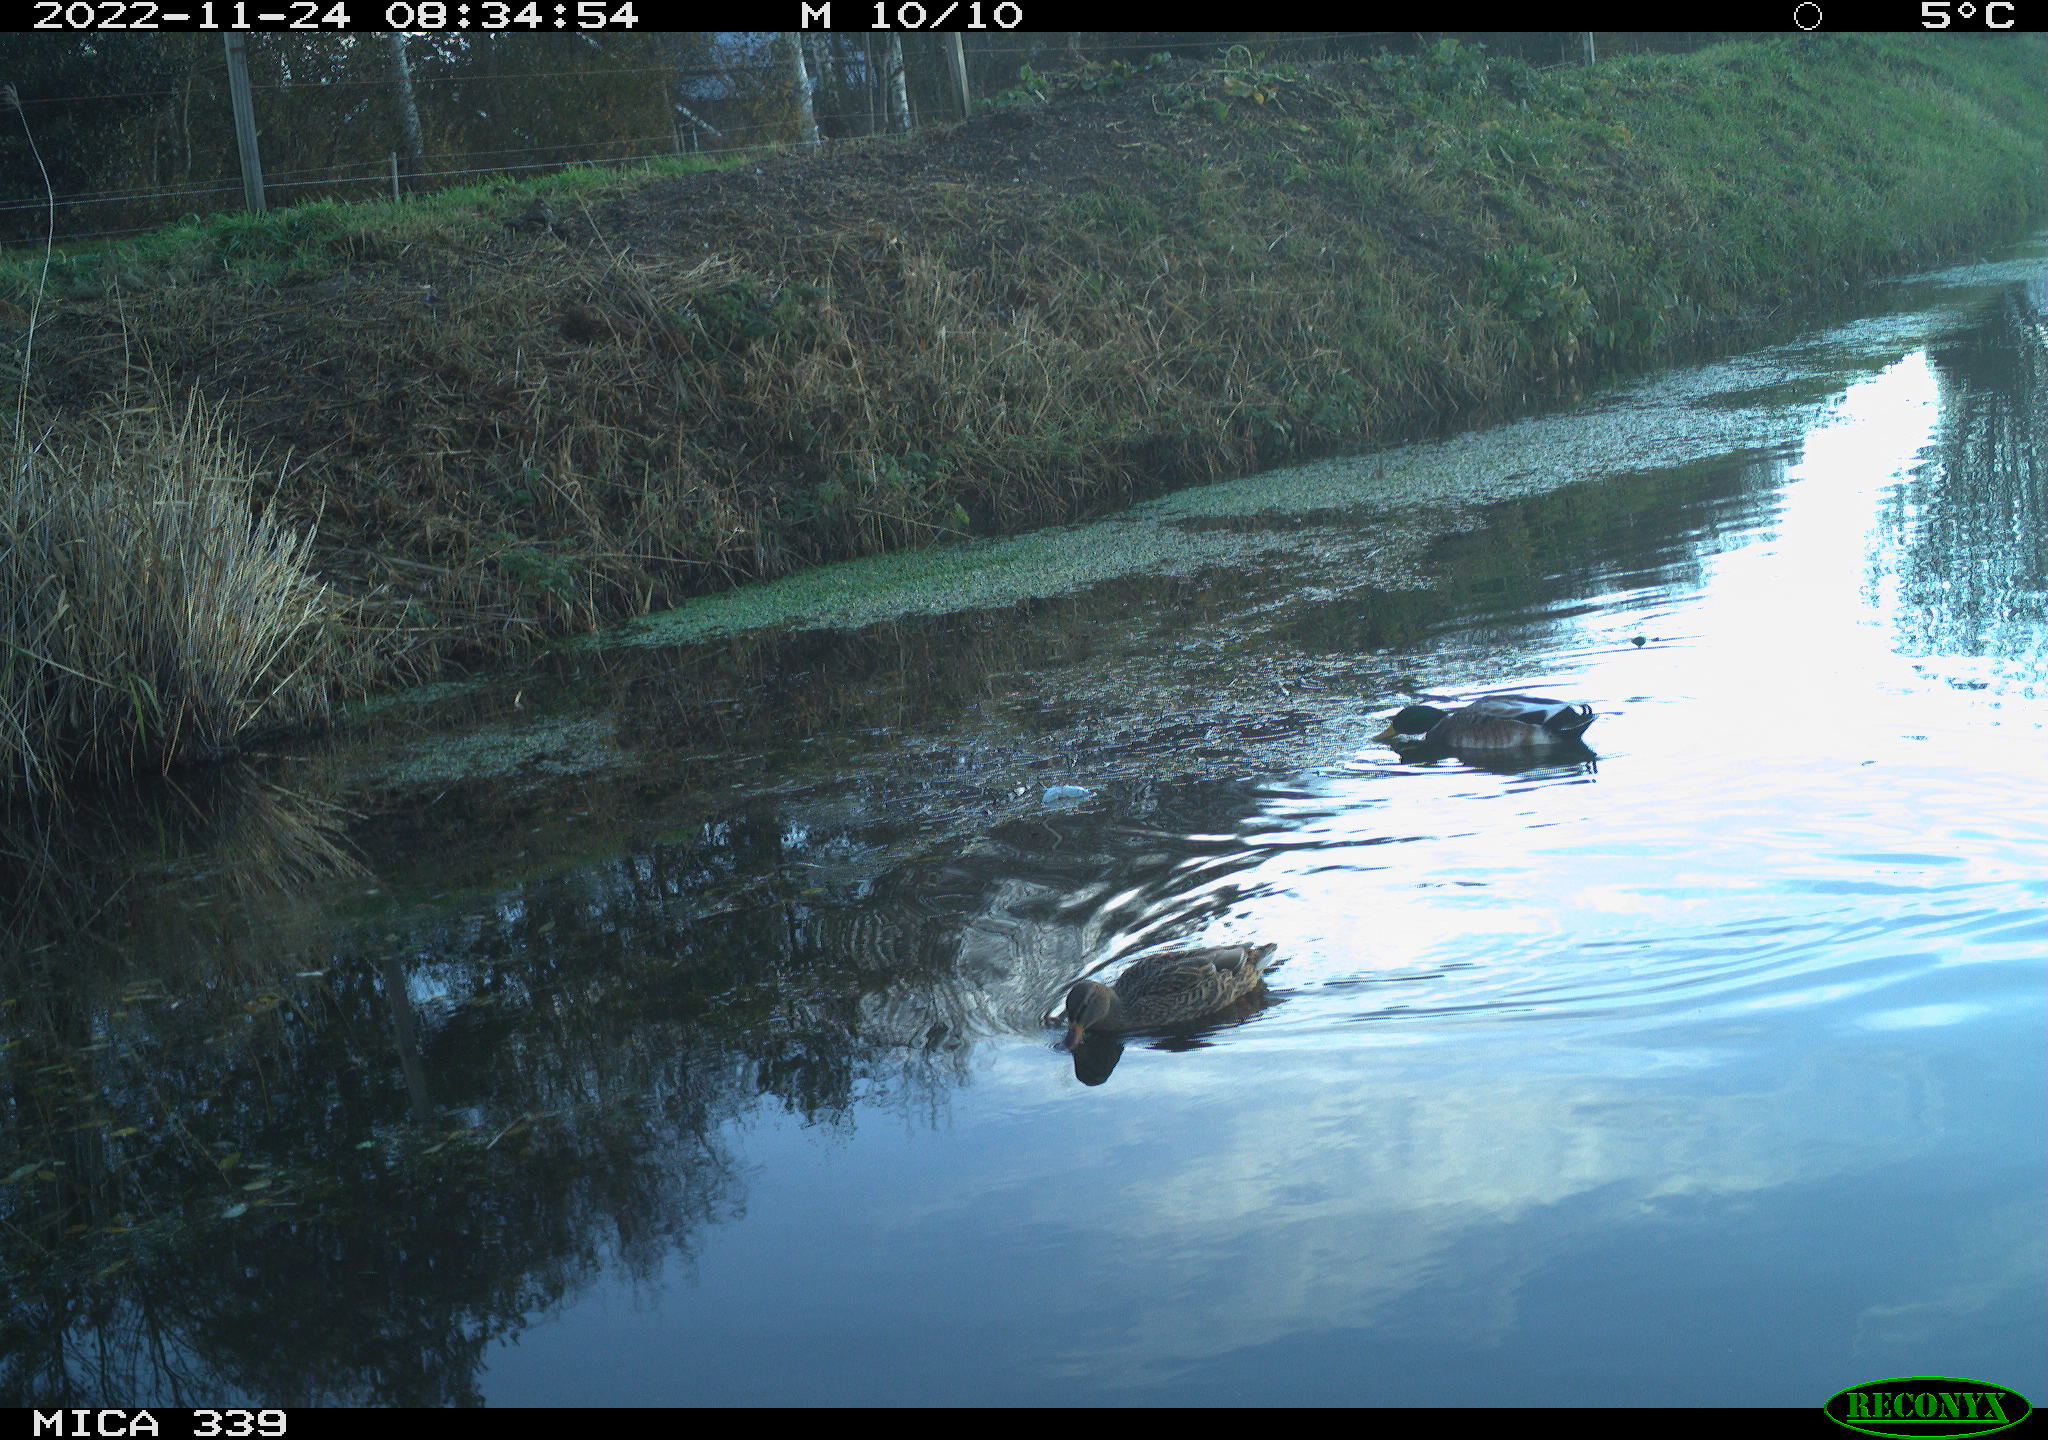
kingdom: Animalia
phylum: Chordata
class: Aves
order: Anseriformes
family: Anatidae
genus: Anas
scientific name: Anas platyrhynchos
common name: Mallard
